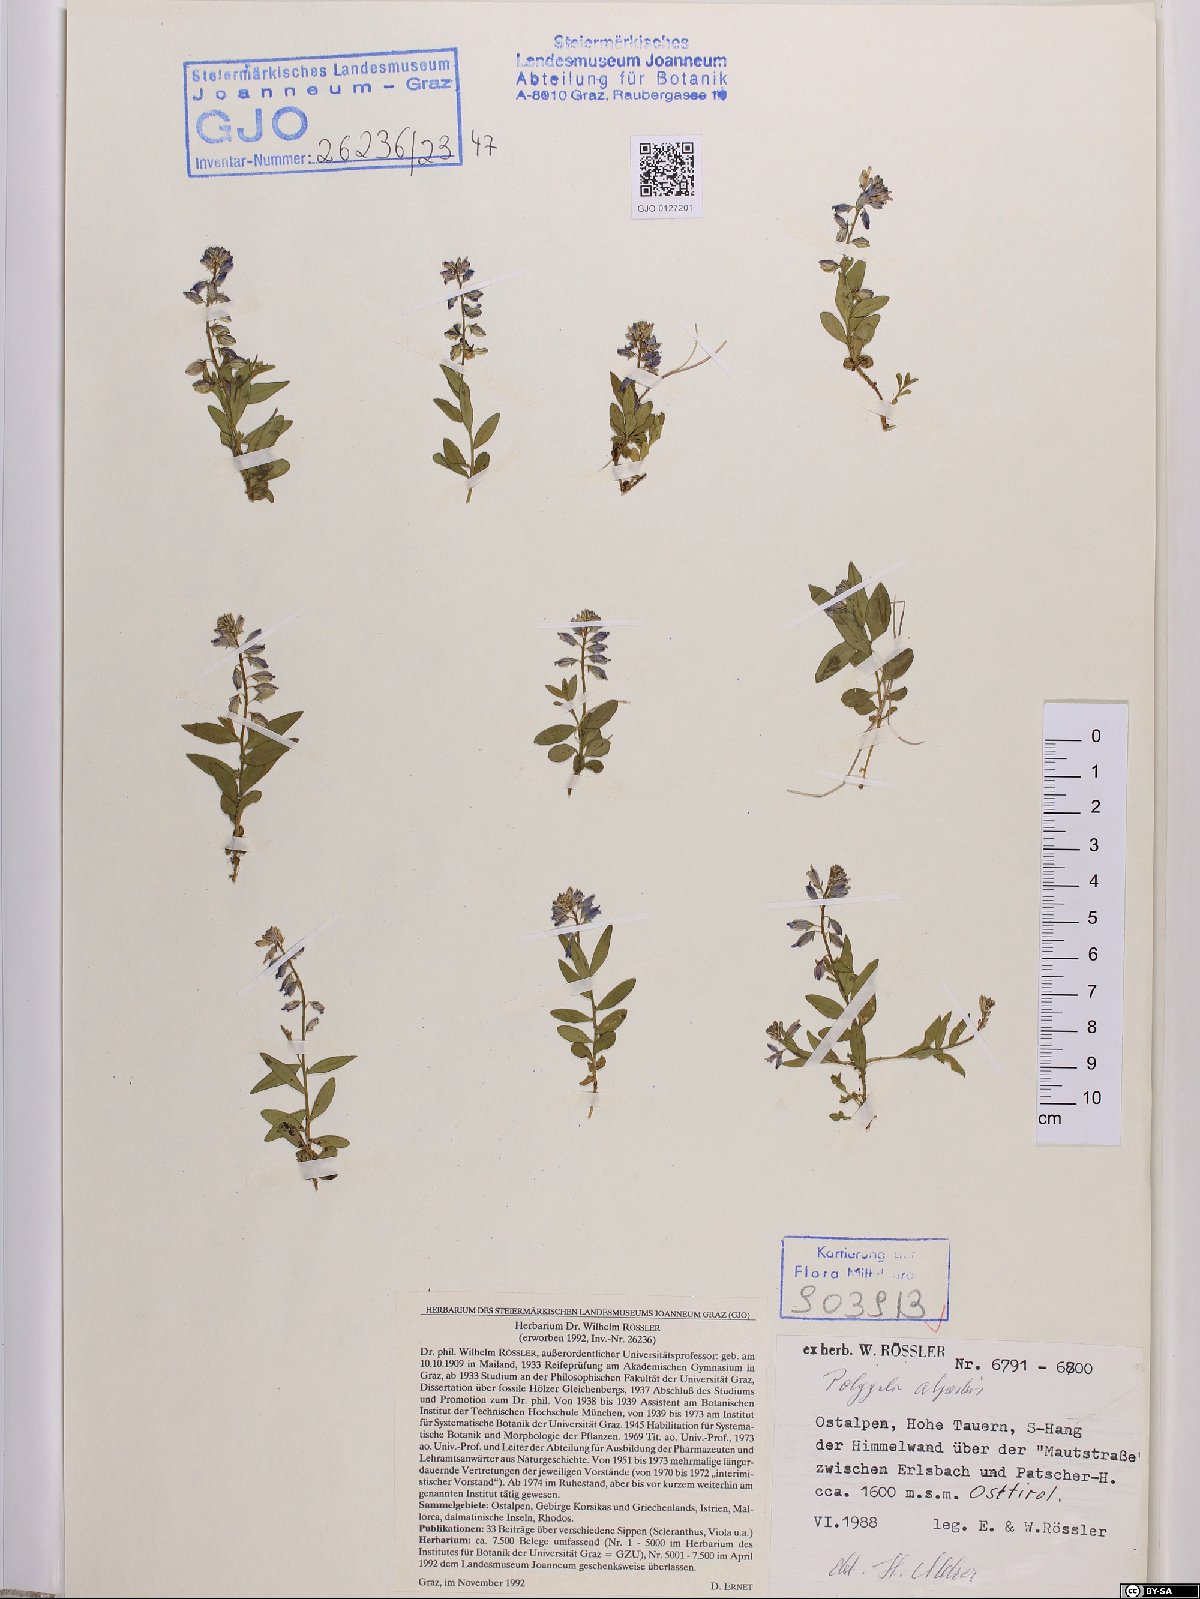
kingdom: Plantae
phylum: Tracheophyta
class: Magnoliopsida
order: Fabales
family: Polygalaceae
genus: Polygala
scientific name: Polygala alpestris
